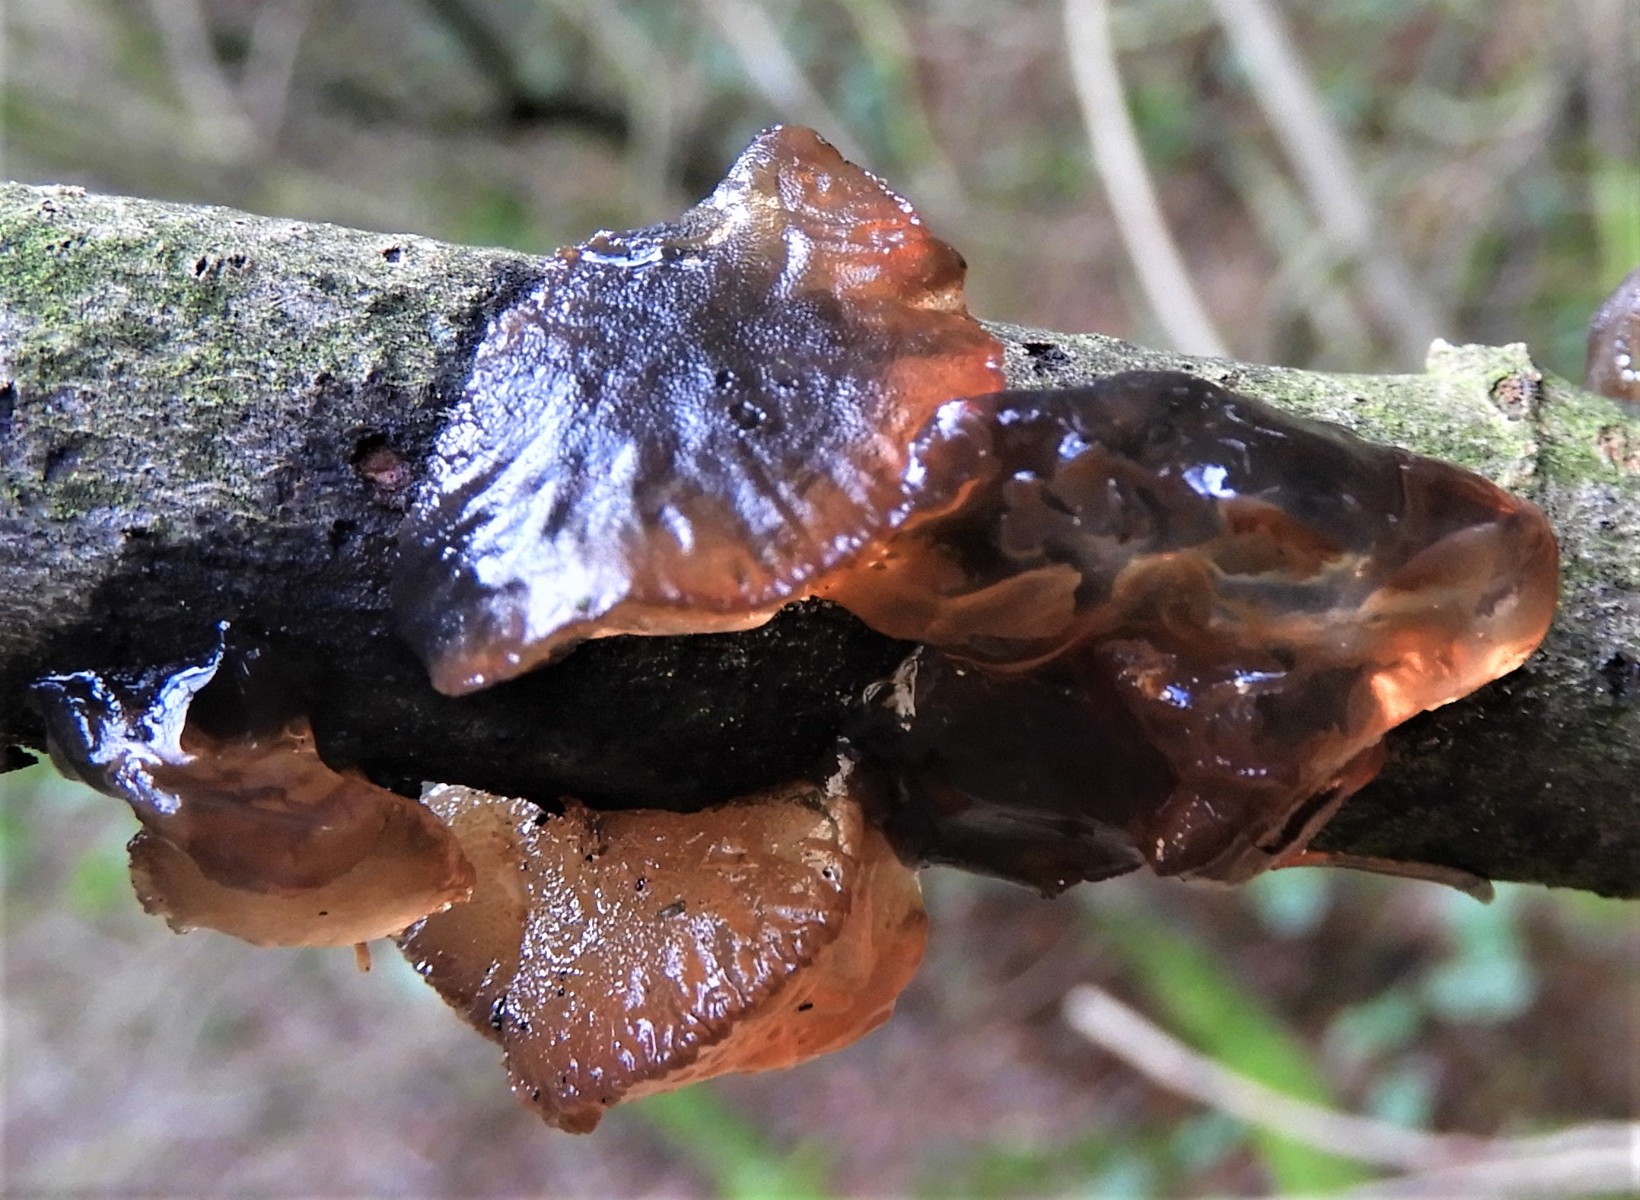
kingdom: Fungi
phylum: Basidiomycota
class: Agaricomycetes
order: Auriculariales
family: Auriculariaceae
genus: Exidia
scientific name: Exidia recisa
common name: pile-bævretop
